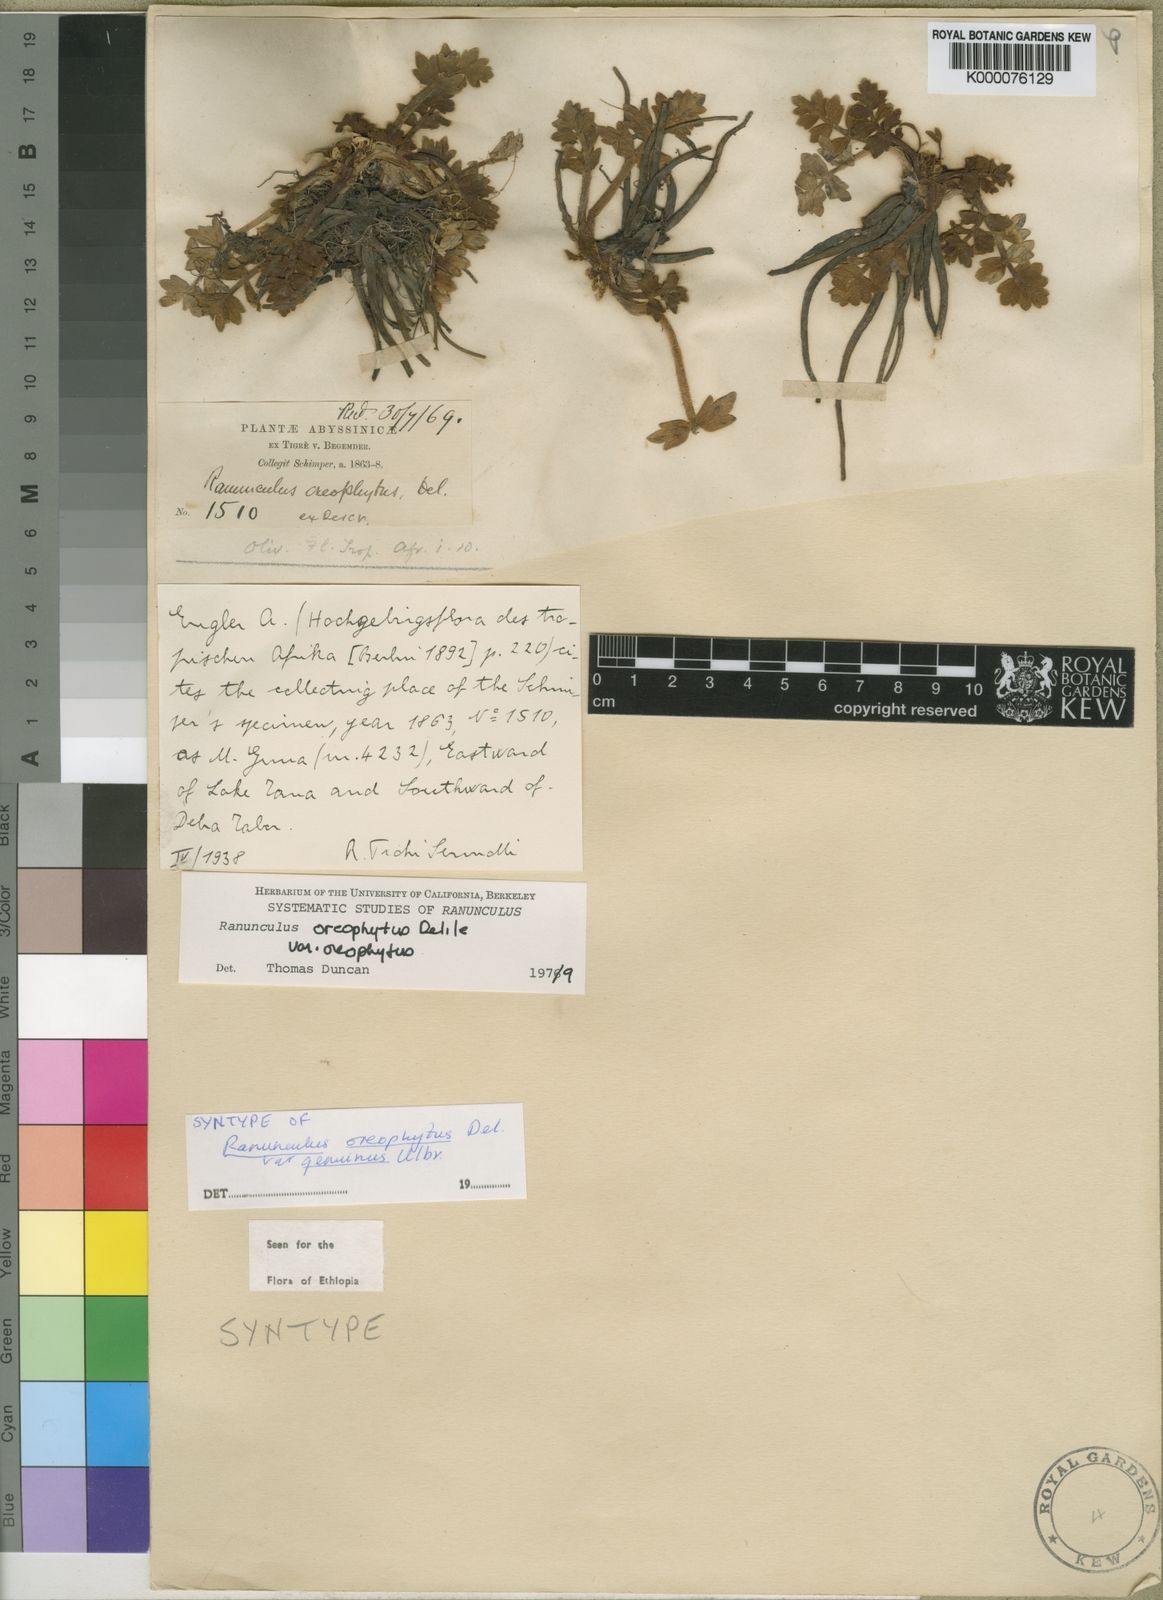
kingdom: Plantae
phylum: Tracheophyta
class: Magnoliopsida
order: Ranunculales
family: Ranunculaceae
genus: Ranunculus
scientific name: Ranunculus oreophytus
